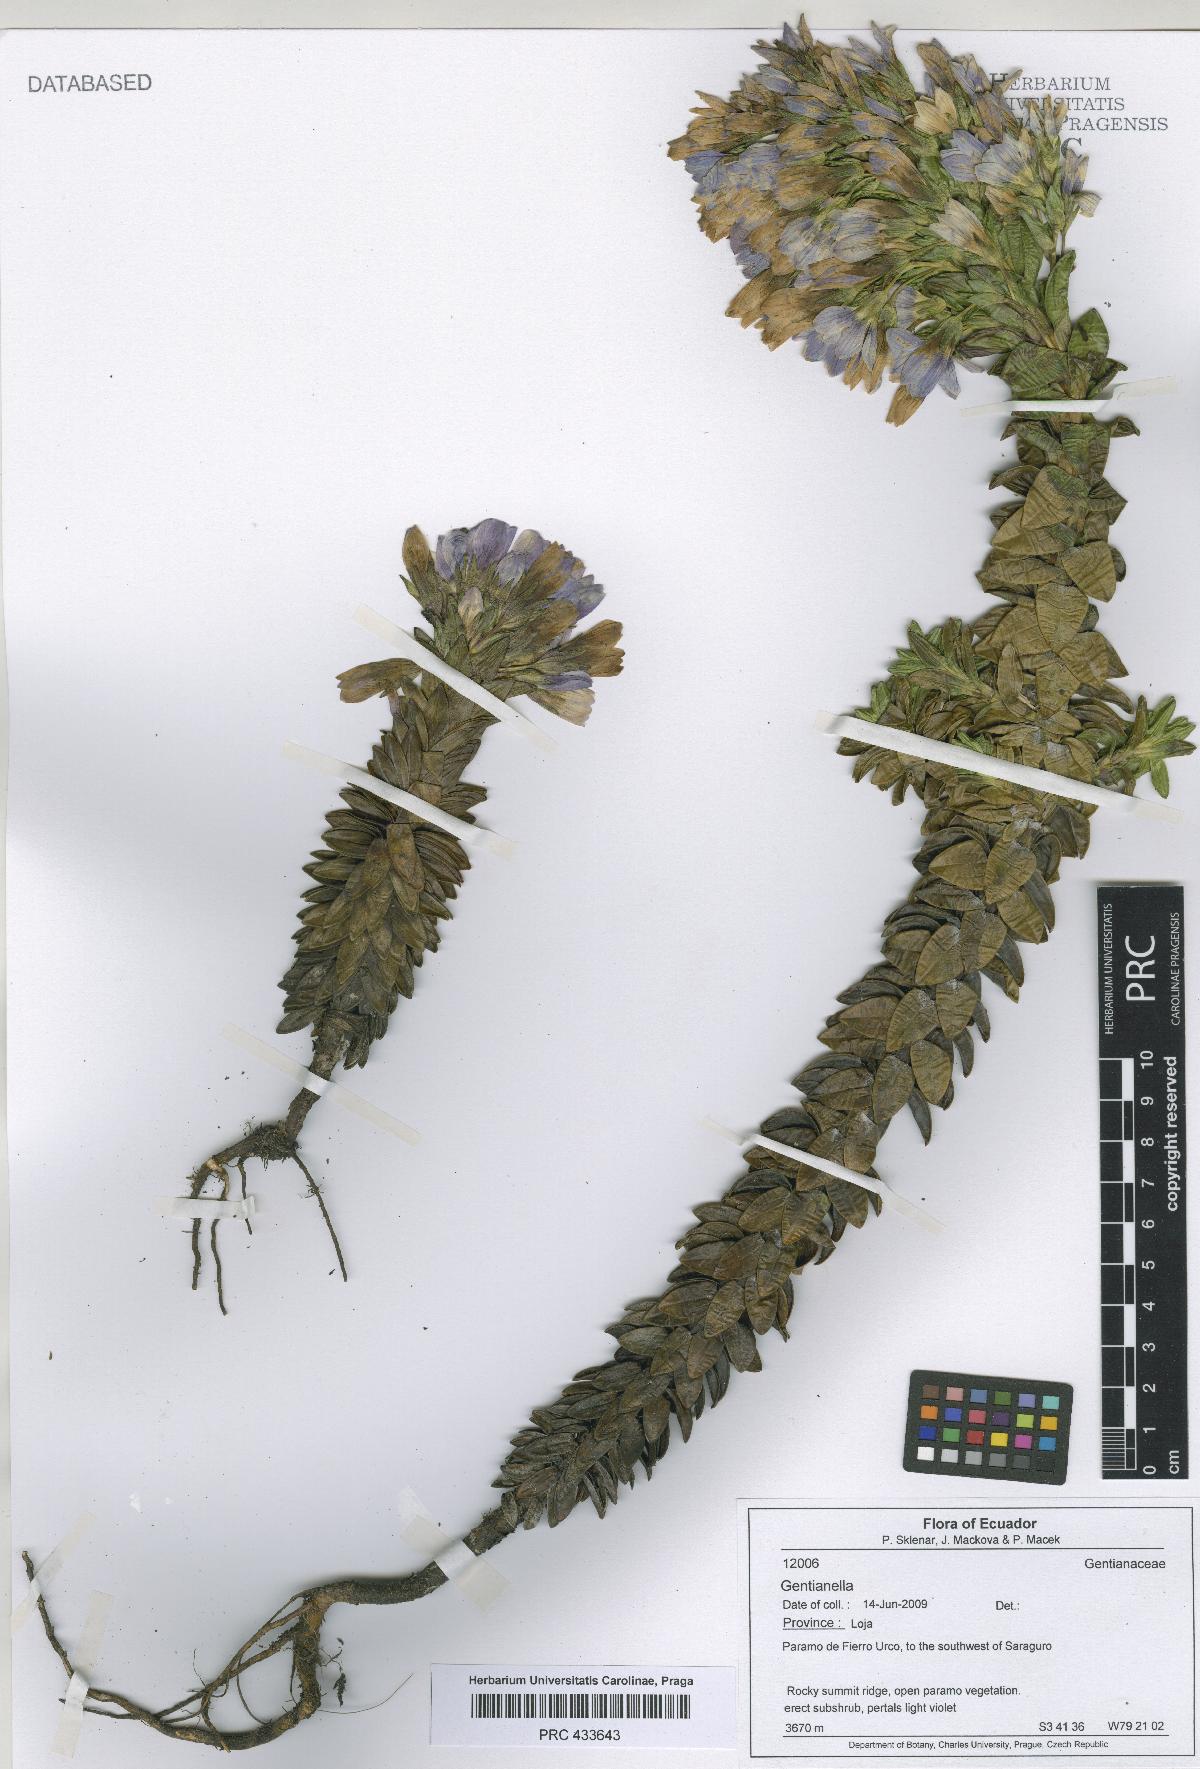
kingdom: Plantae
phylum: Tracheophyta
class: Magnoliopsida
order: Gentianales
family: Gentianaceae
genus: Gentianella
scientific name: Gentianella
